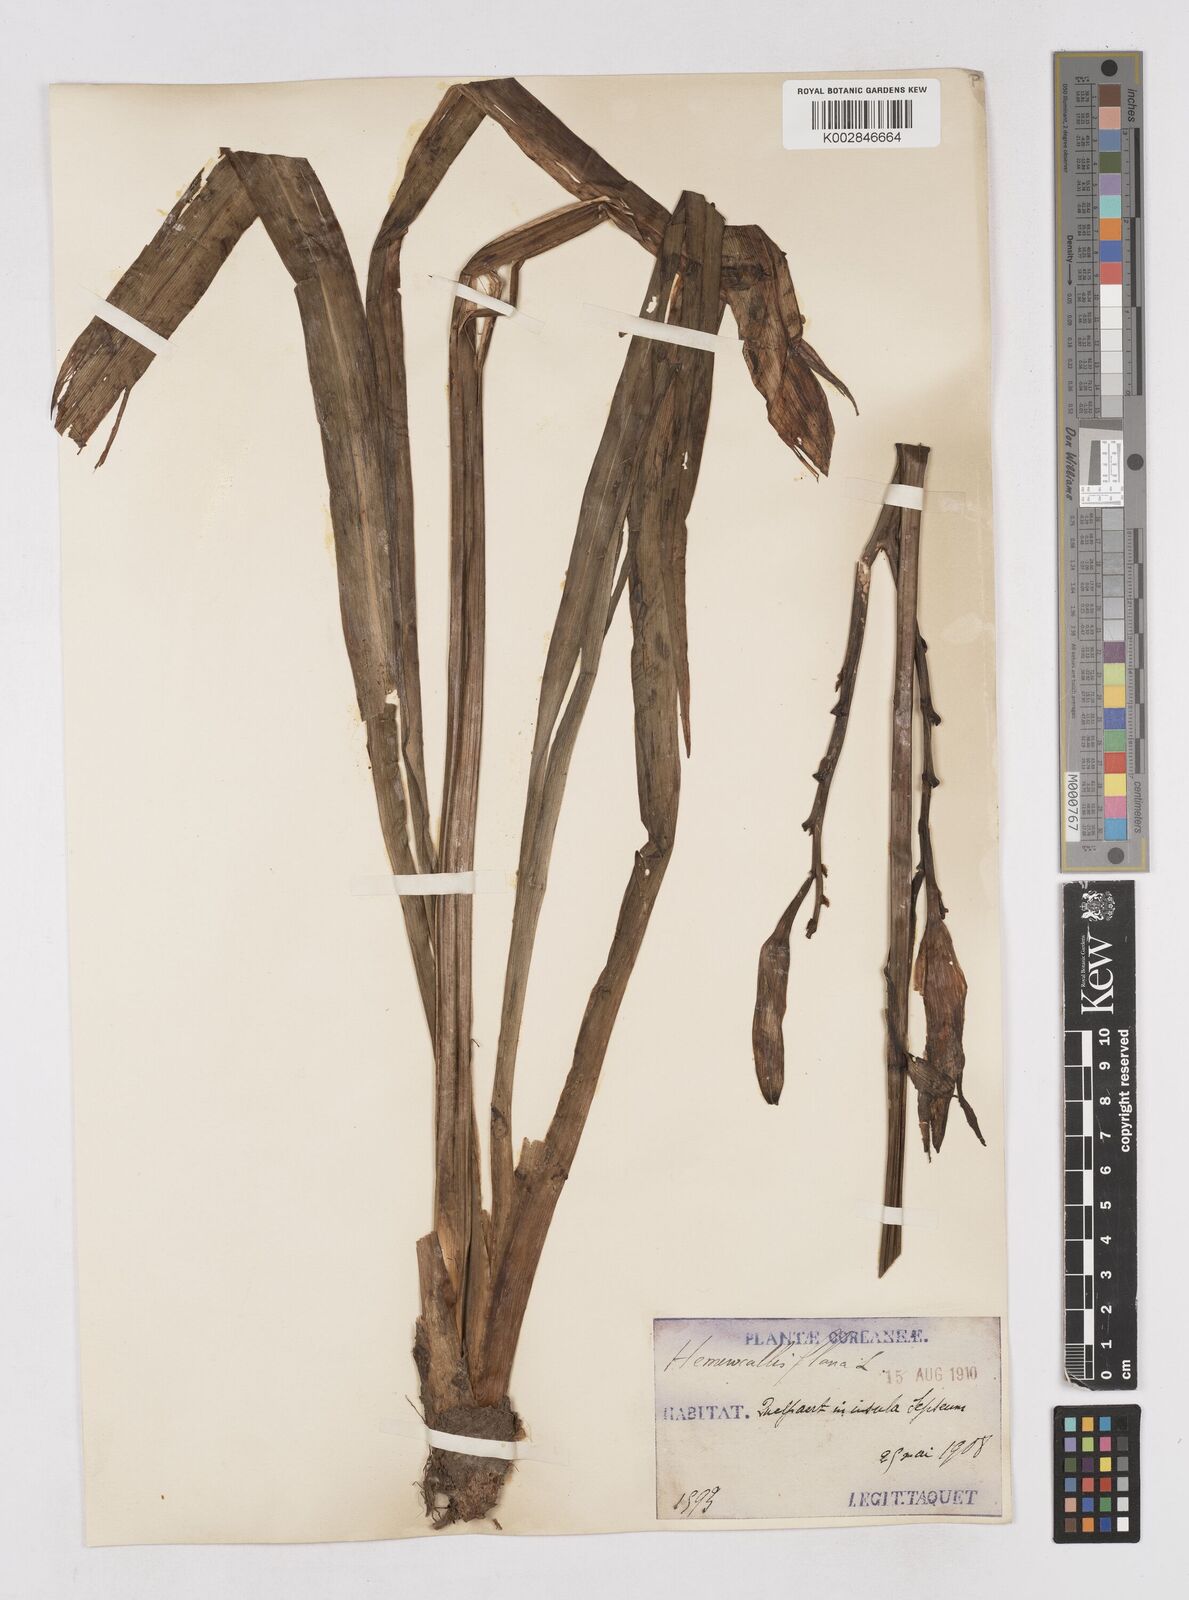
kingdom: Plantae
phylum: Tracheophyta
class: Liliopsida
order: Asparagales
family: Asphodelaceae
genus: Hemerocallis
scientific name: Hemerocallis fulva
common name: Orange day-lily
